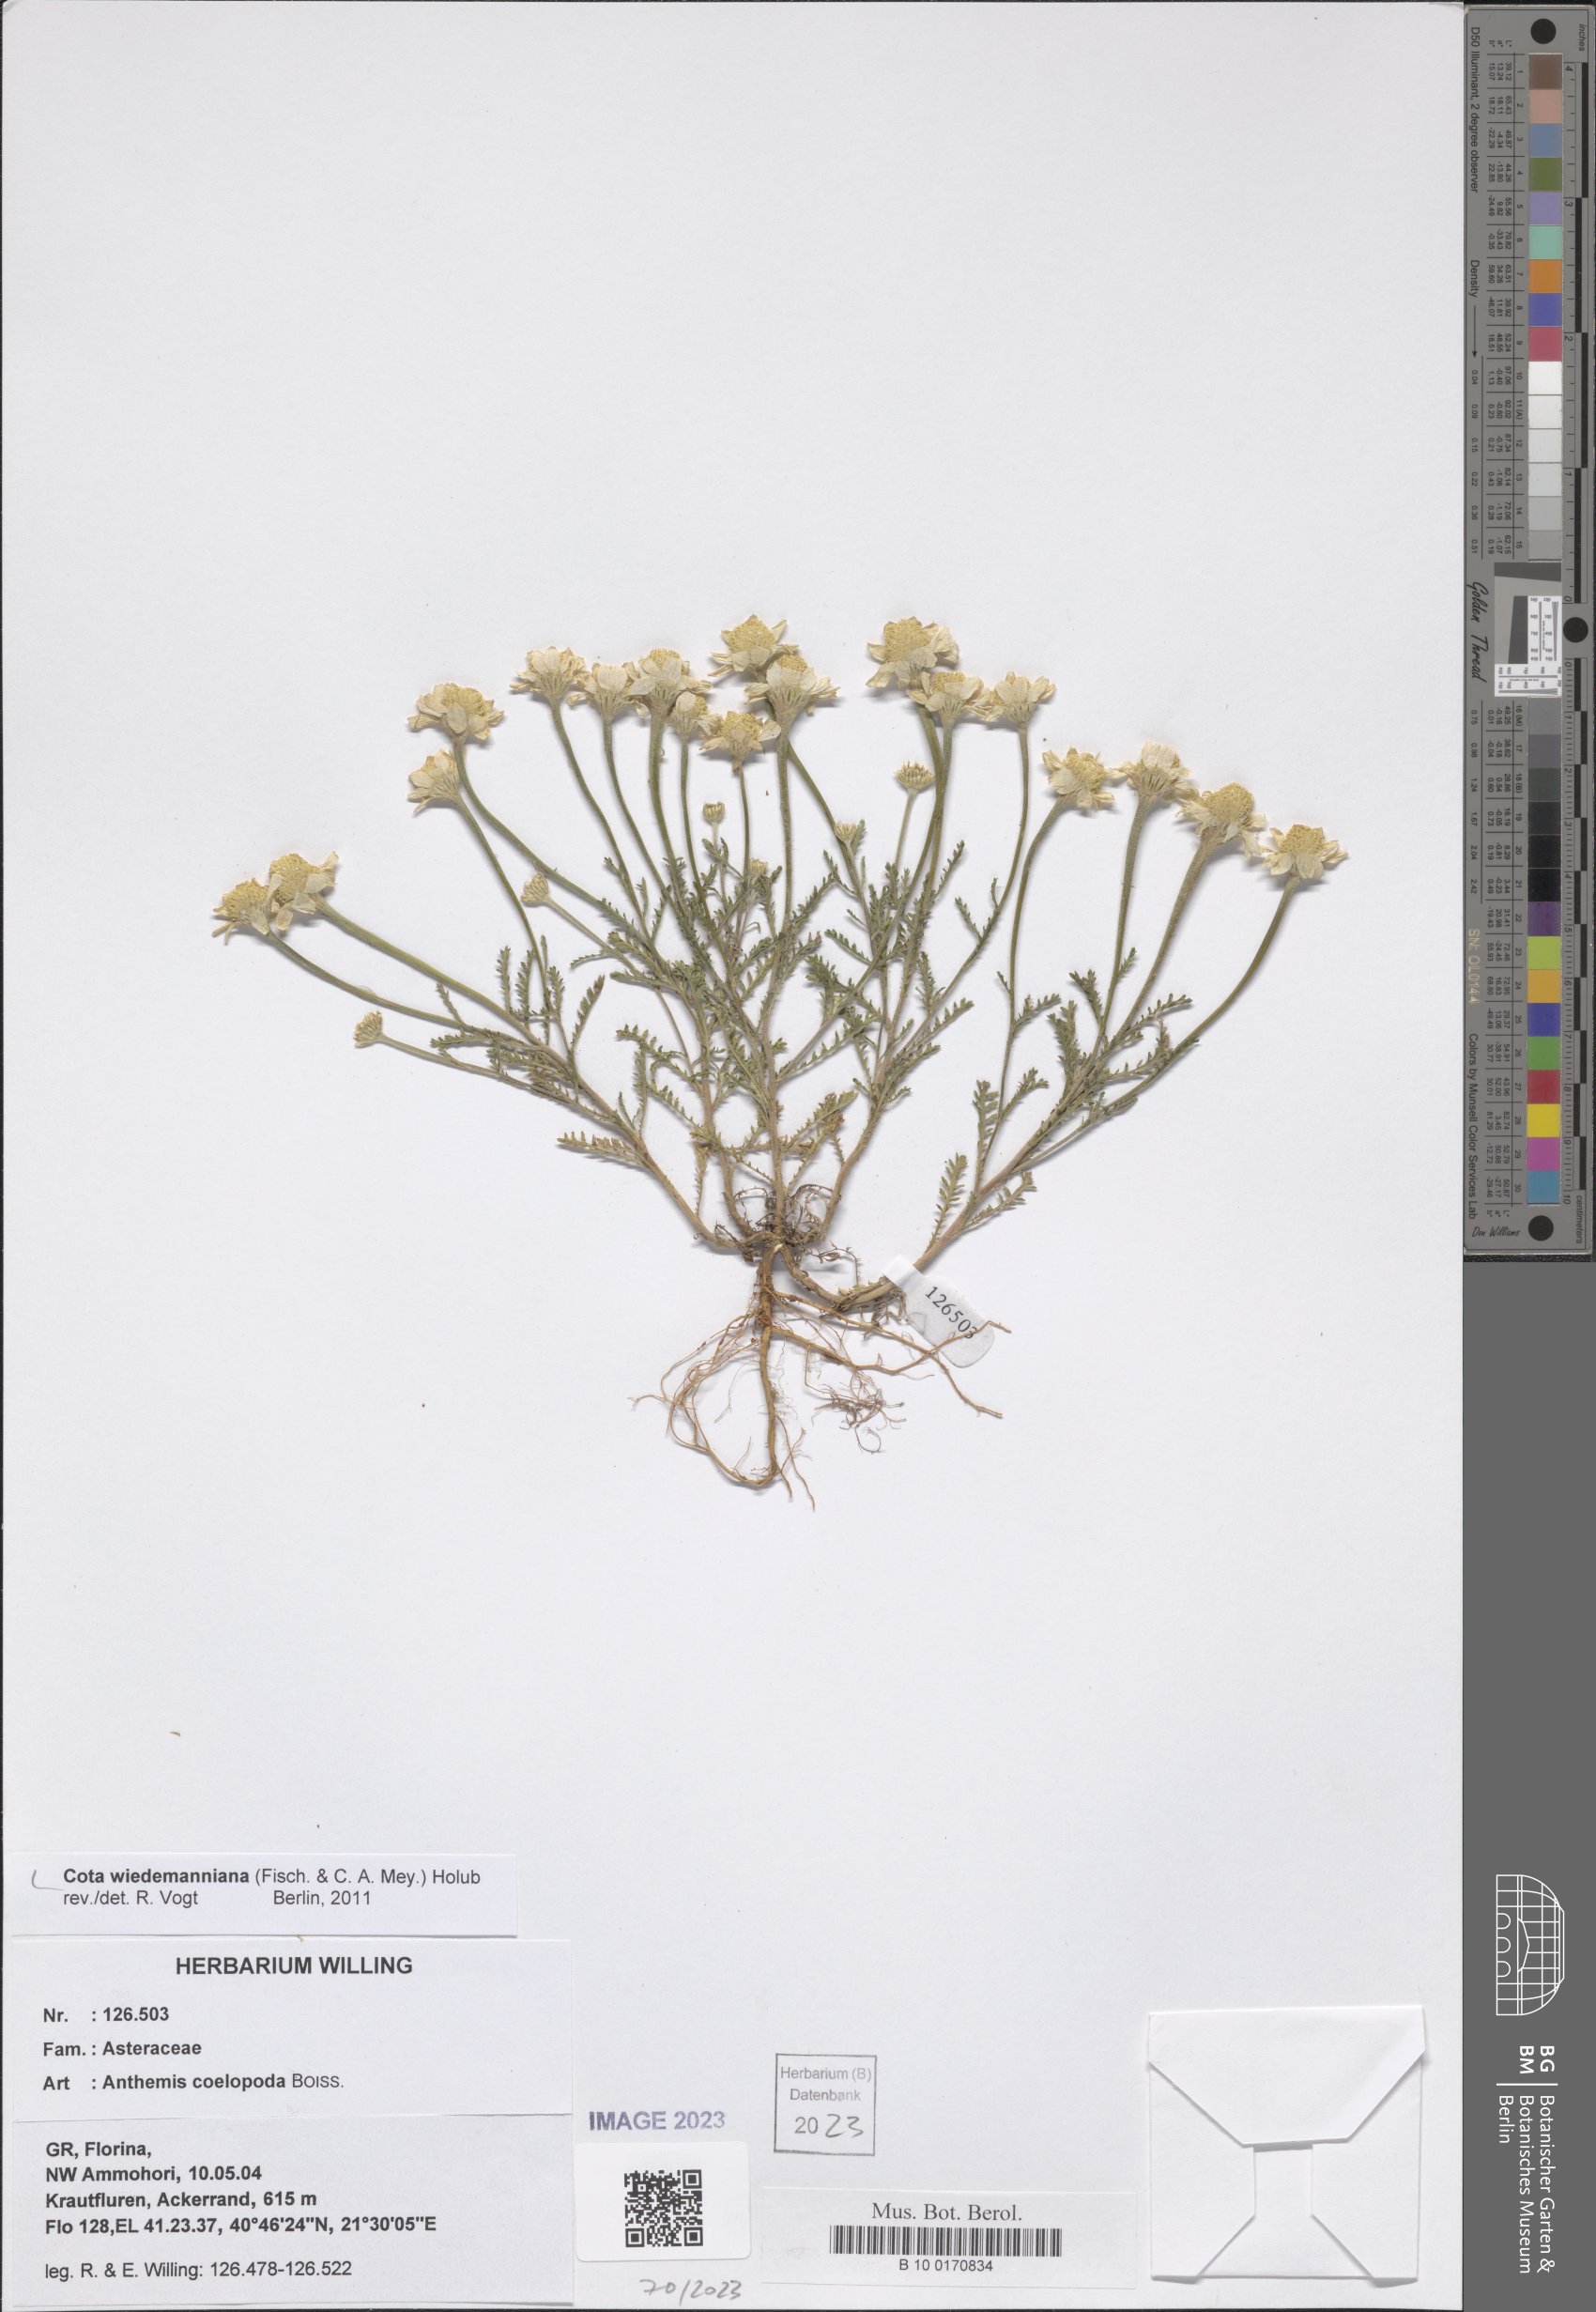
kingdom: Plantae
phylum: Tracheophyta
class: Magnoliopsida
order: Asterales
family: Asteraceae
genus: Cota
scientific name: Cota wiedemanniana
